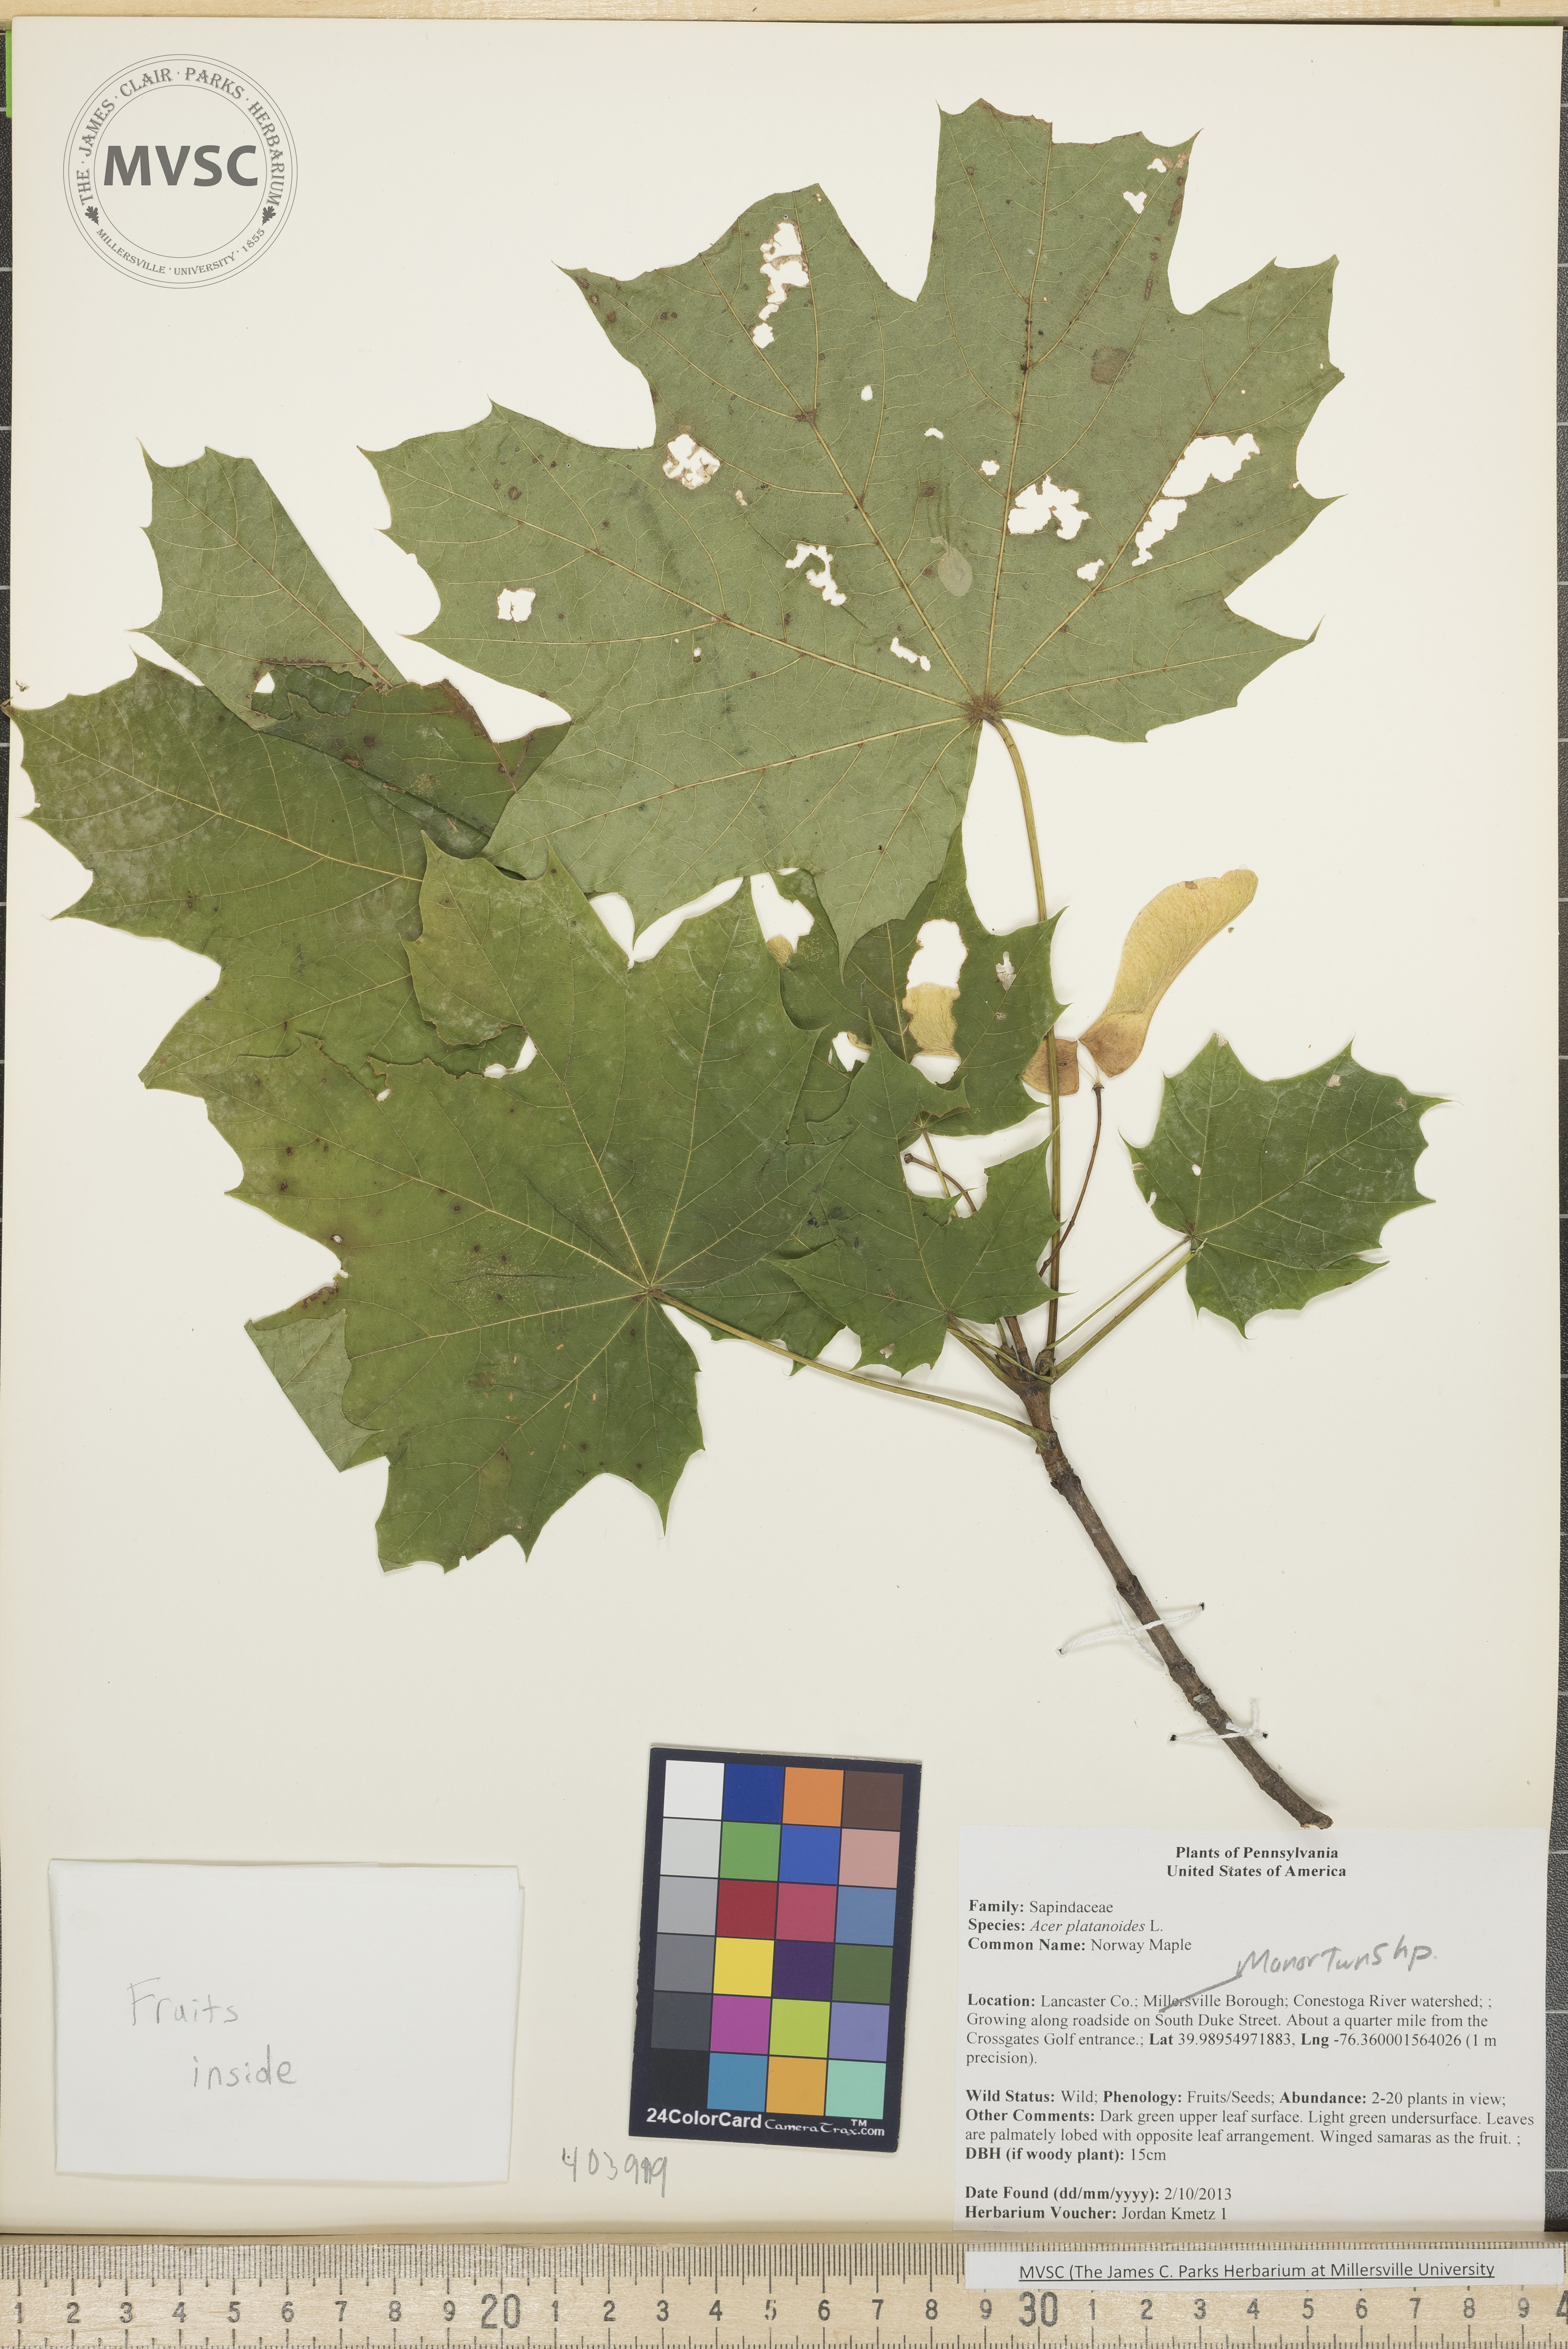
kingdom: Plantae
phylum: Tracheophyta
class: Magnoliopsida
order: Sapindales
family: Sapindaceae
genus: Acer
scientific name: Acer platanoides
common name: Norway Maple
